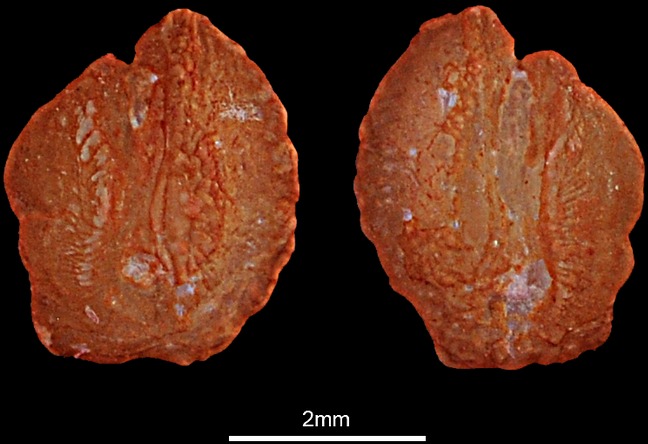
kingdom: Animalia
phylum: Chordata
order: Perciformes
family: Labridae
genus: Xyrichtys
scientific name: Xyrichtys novacula
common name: Pearly razorfish
